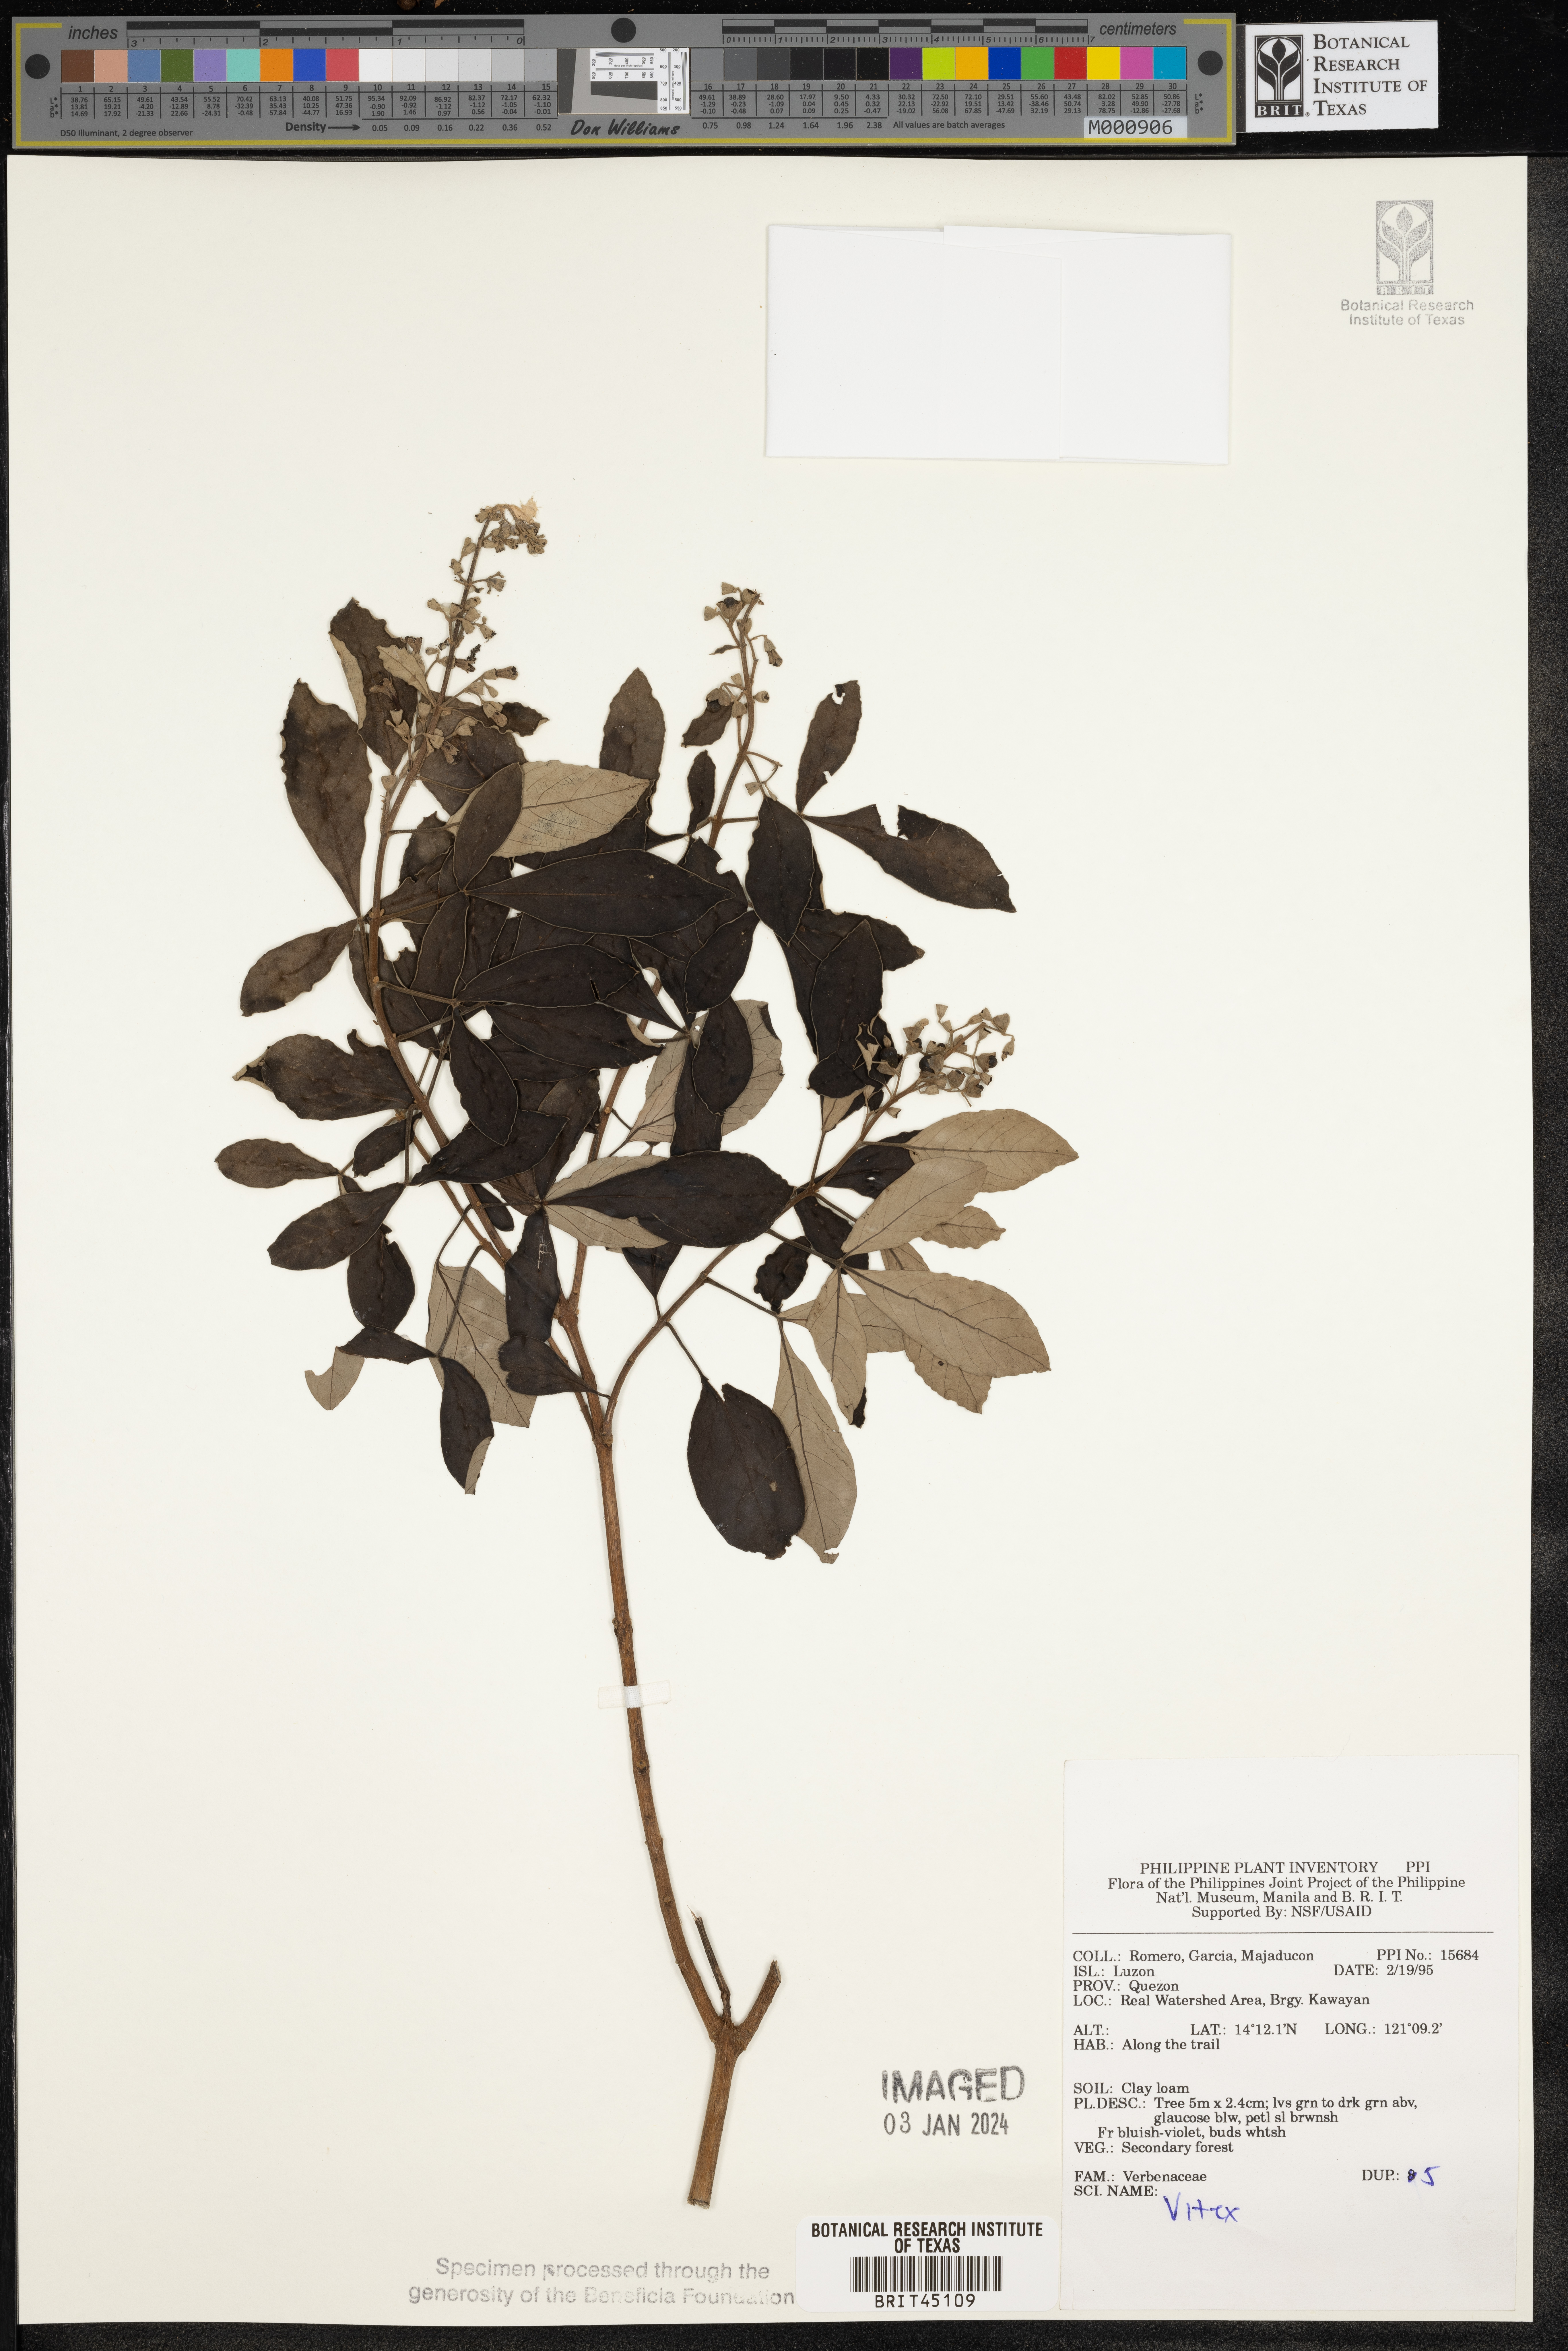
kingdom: Plantae
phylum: Tracheophyta
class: Magnoliopsida
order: Lamiales
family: Lamiaceae
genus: Vitex
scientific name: Vitex
